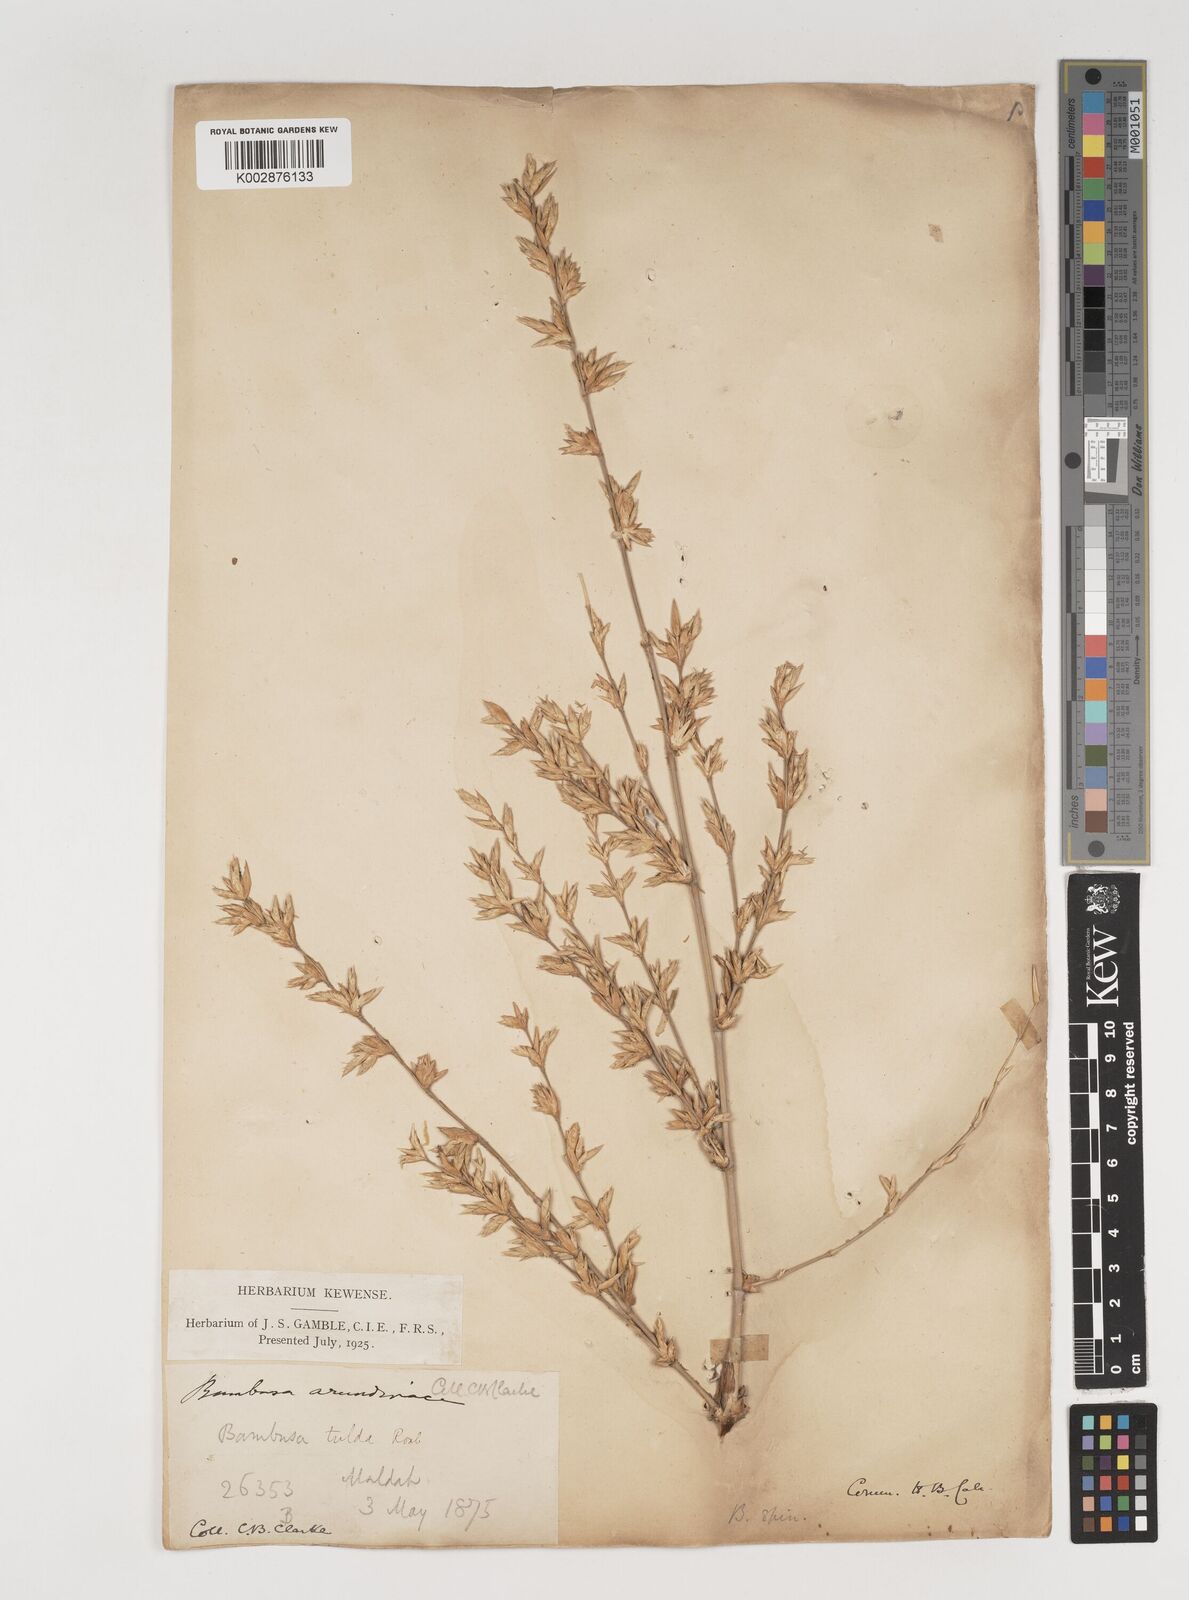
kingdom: Plantae
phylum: Tracheophyta
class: Liliopsida
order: Poales
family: Poaceae
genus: Bambusa
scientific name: Bambusa bambos
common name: Indian thorny bamboo
